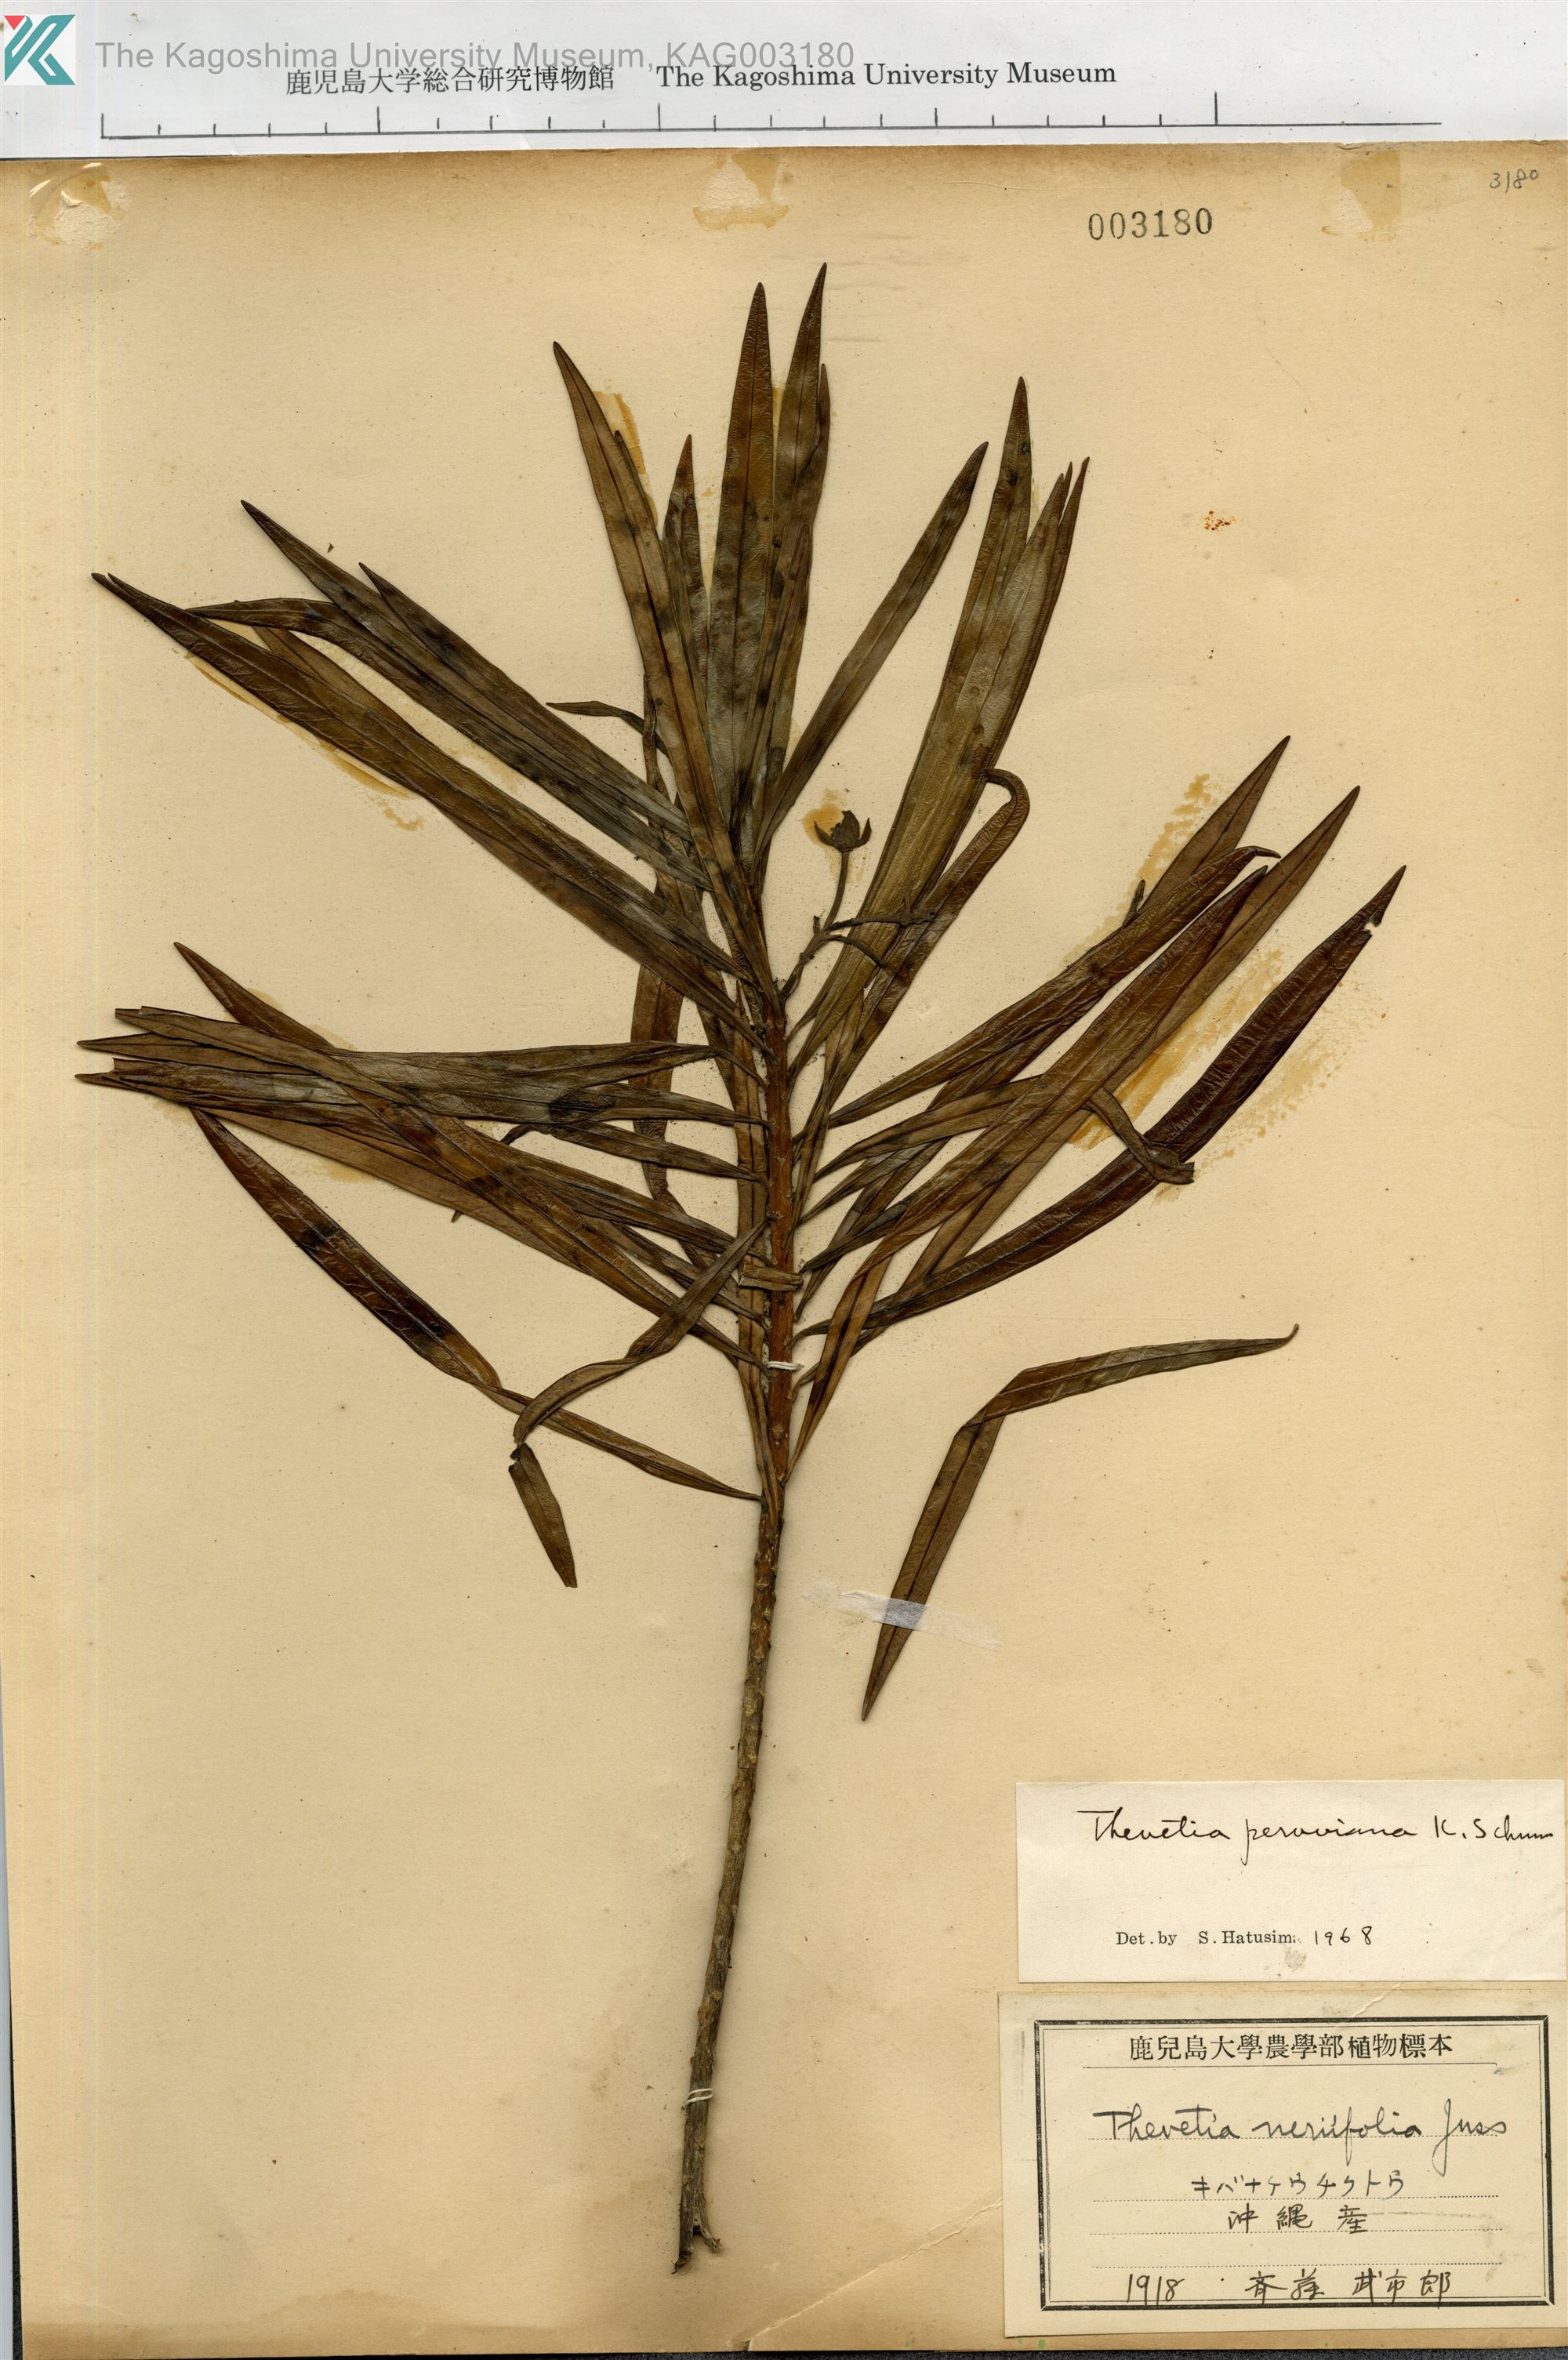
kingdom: Plantae
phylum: Tracheophyta
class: Magnoliopsida
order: Gentianales
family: Apocynaceae
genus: Cascabela
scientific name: Cascabela thevetia
